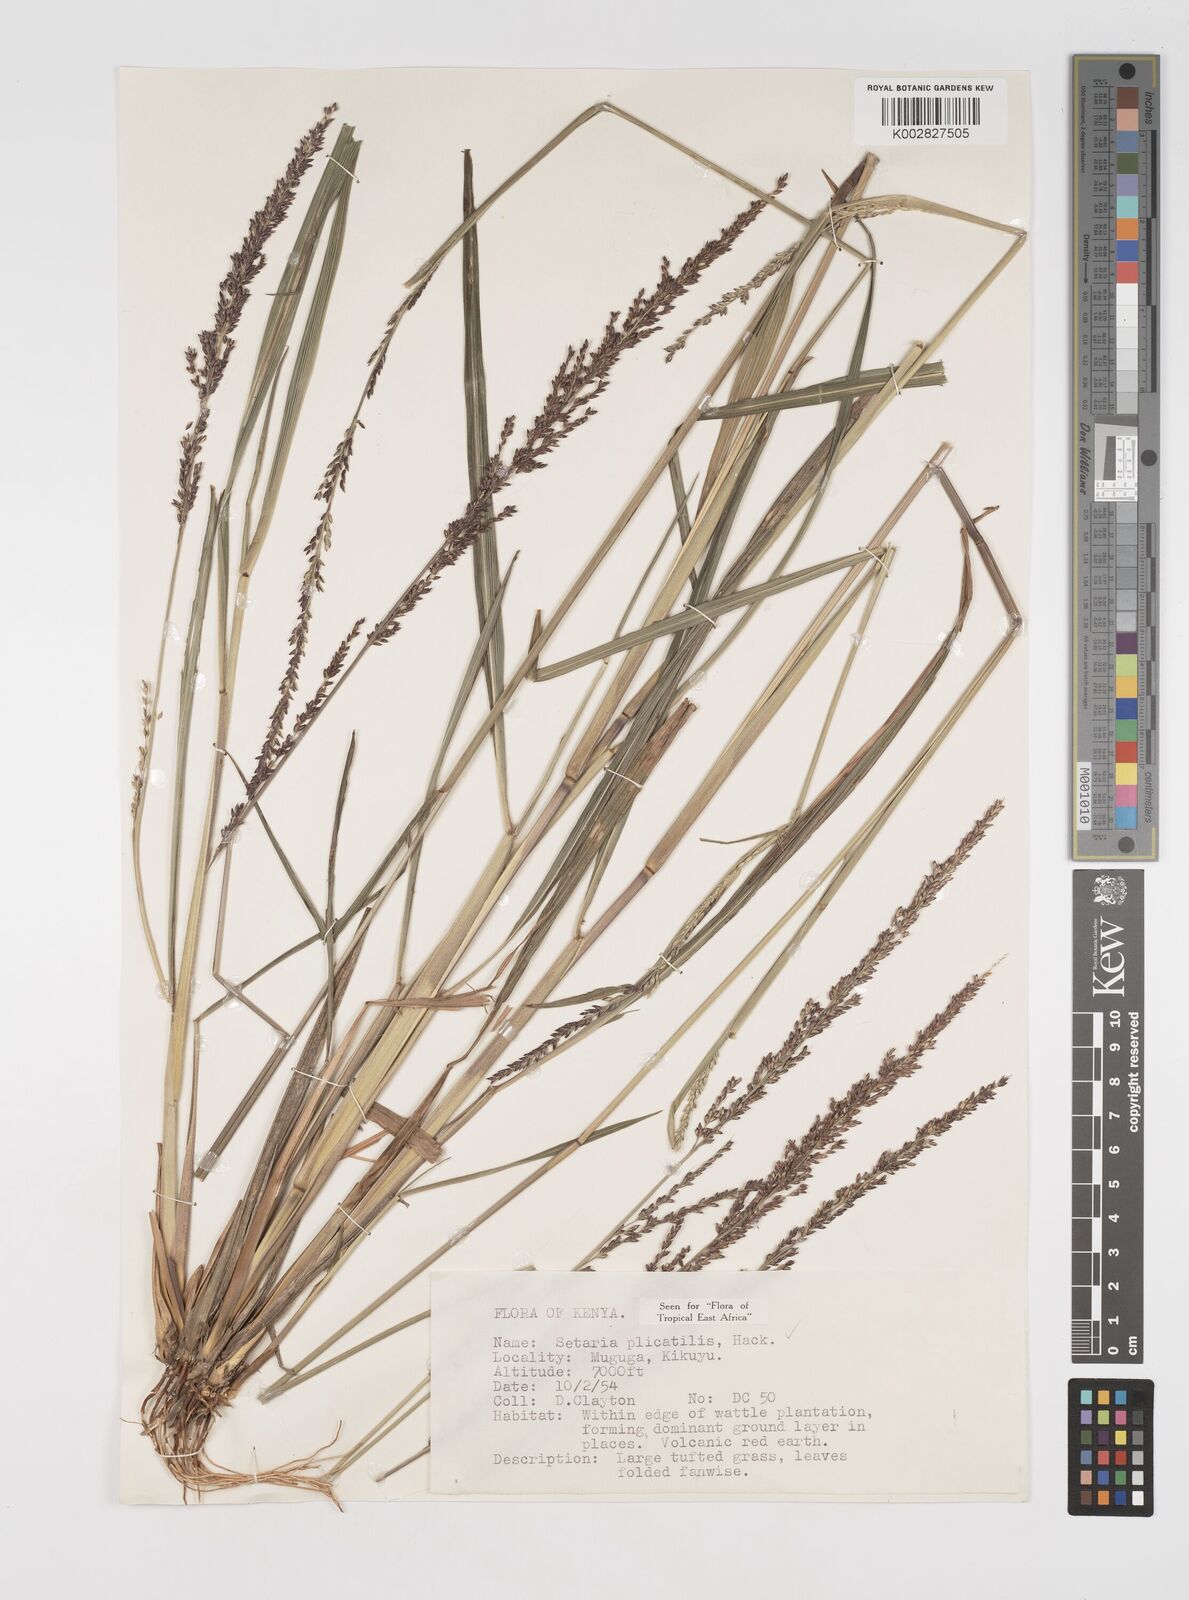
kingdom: Plantae
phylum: Tracheophyta
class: Liliopsida
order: Poales
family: Poaceae
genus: Setaria
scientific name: Setaria megaphylla
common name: Bigleaf bristlegrass
